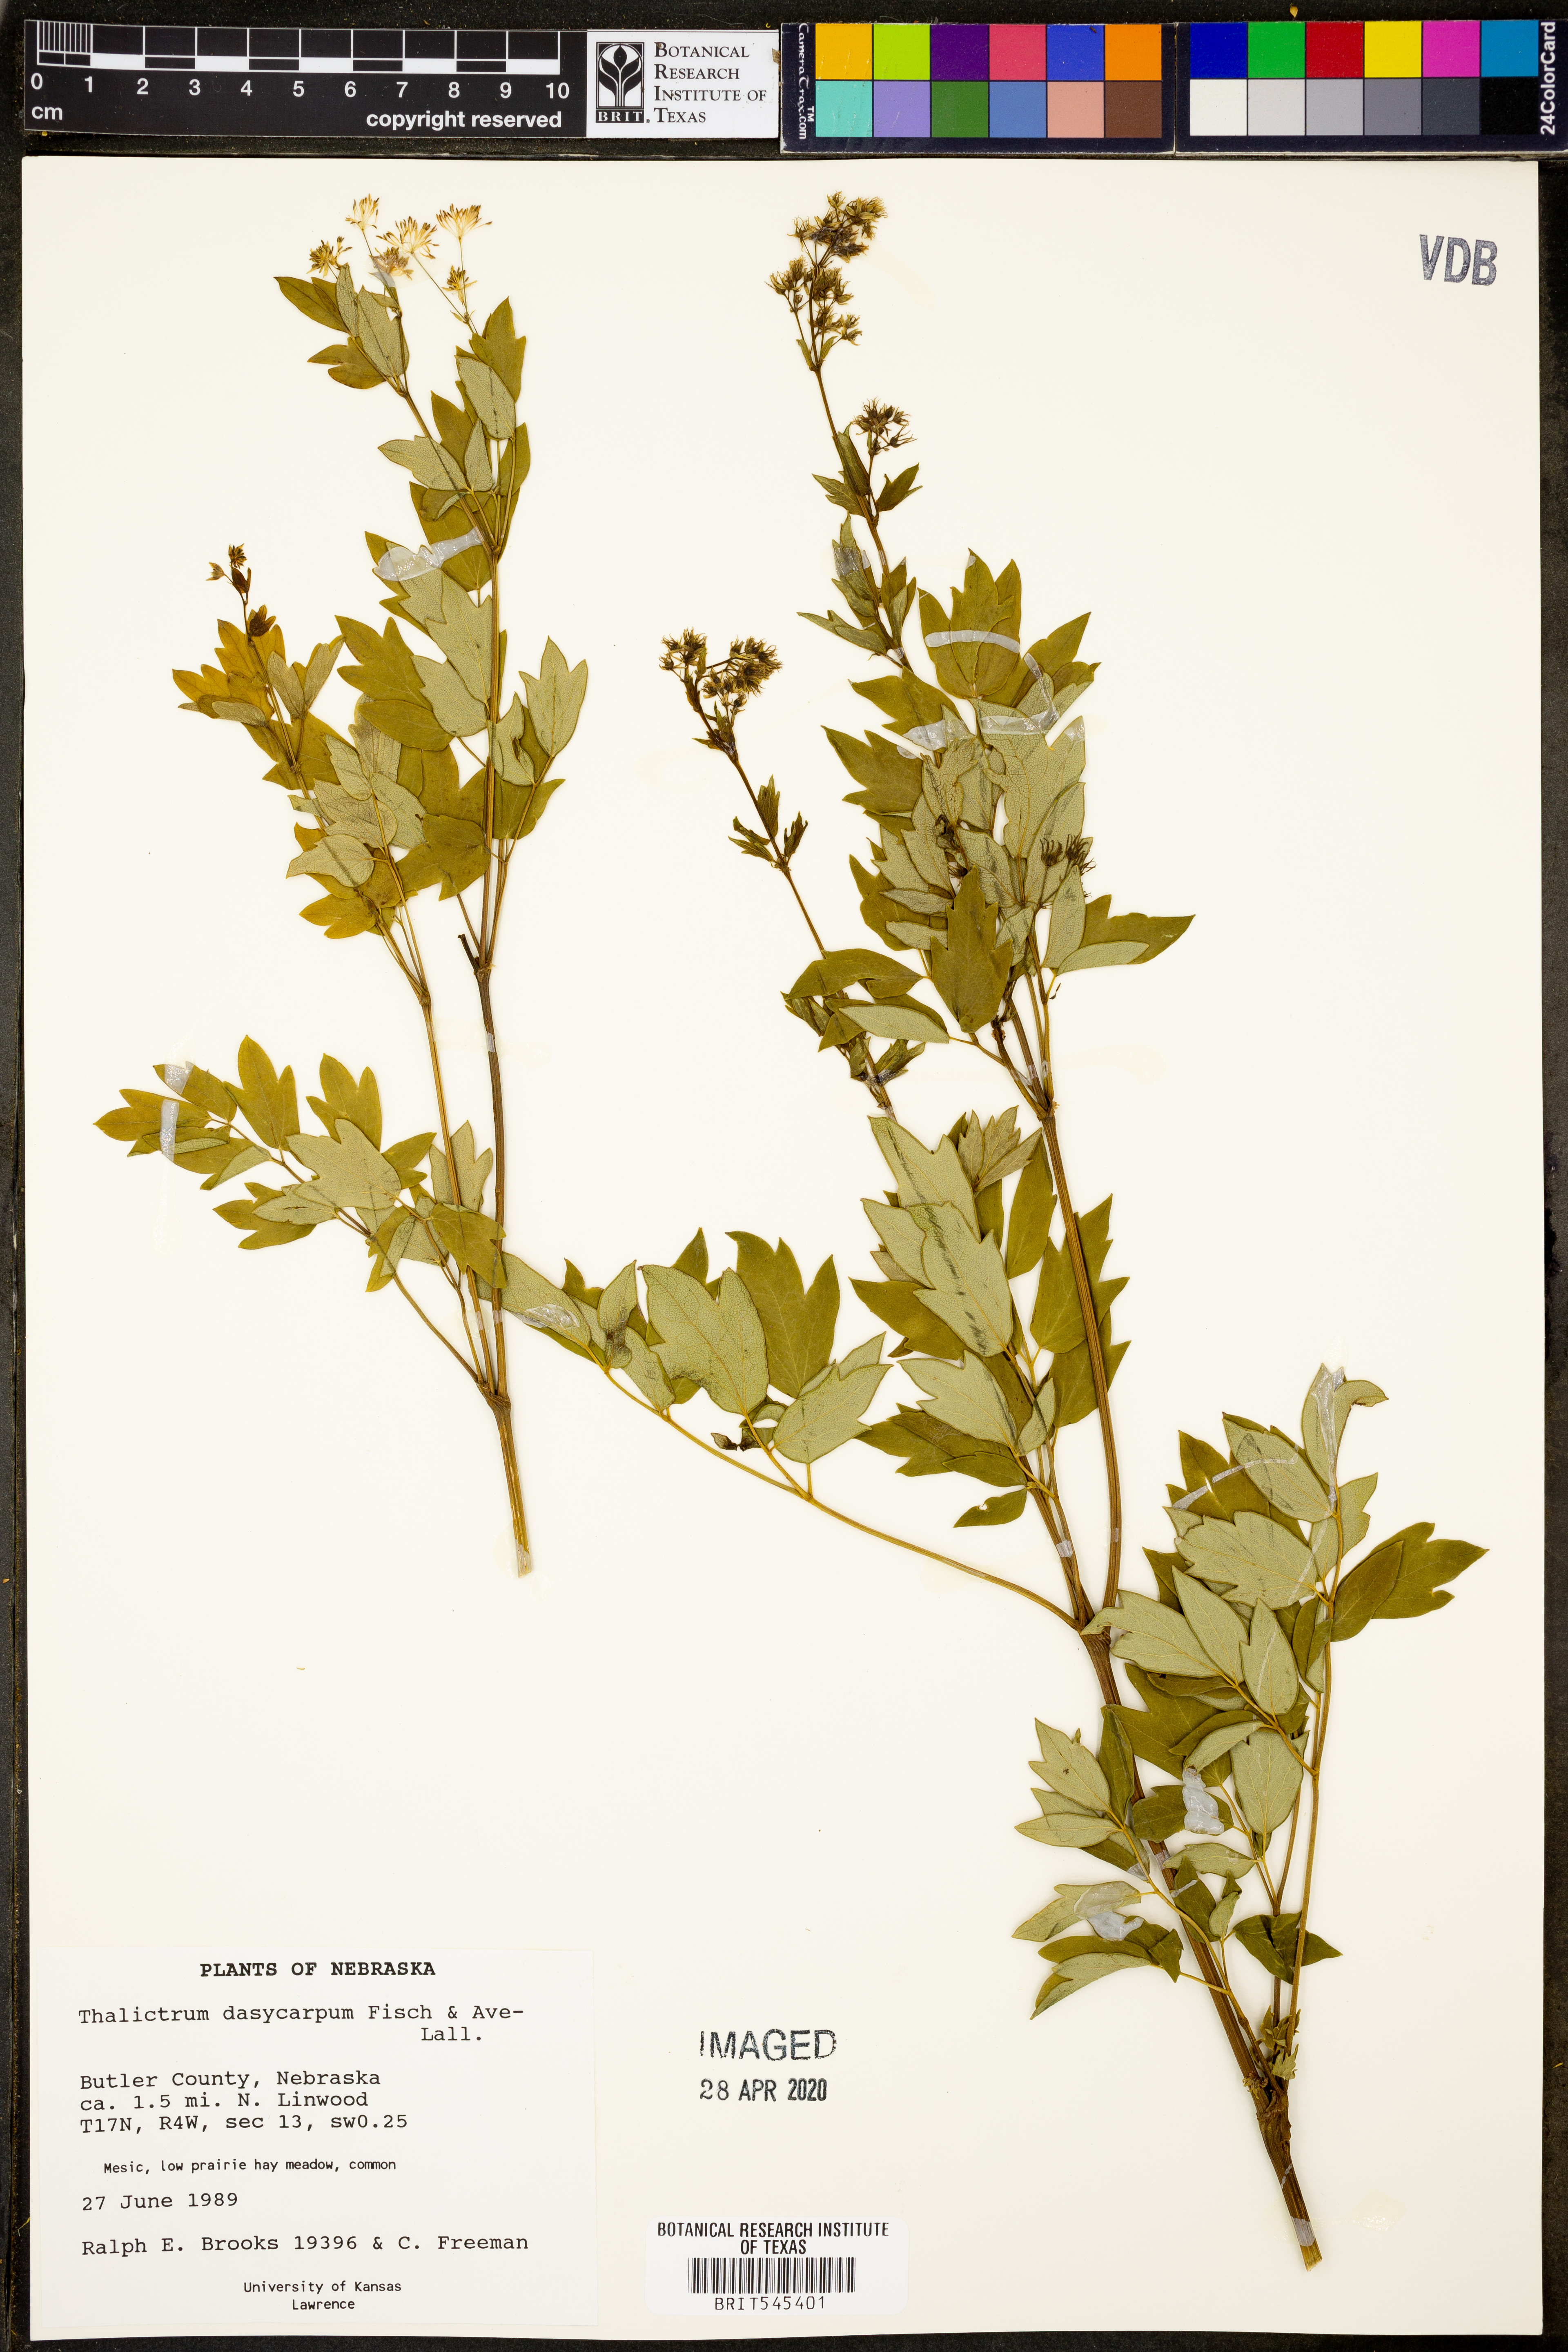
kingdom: Plantae
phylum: Tracheophyta
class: Magnoliopsida
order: Ranunculales
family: Ranunculaceae
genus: Thalictrum
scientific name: Thalictrum dasycarpum
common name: Purple meadow-rue
